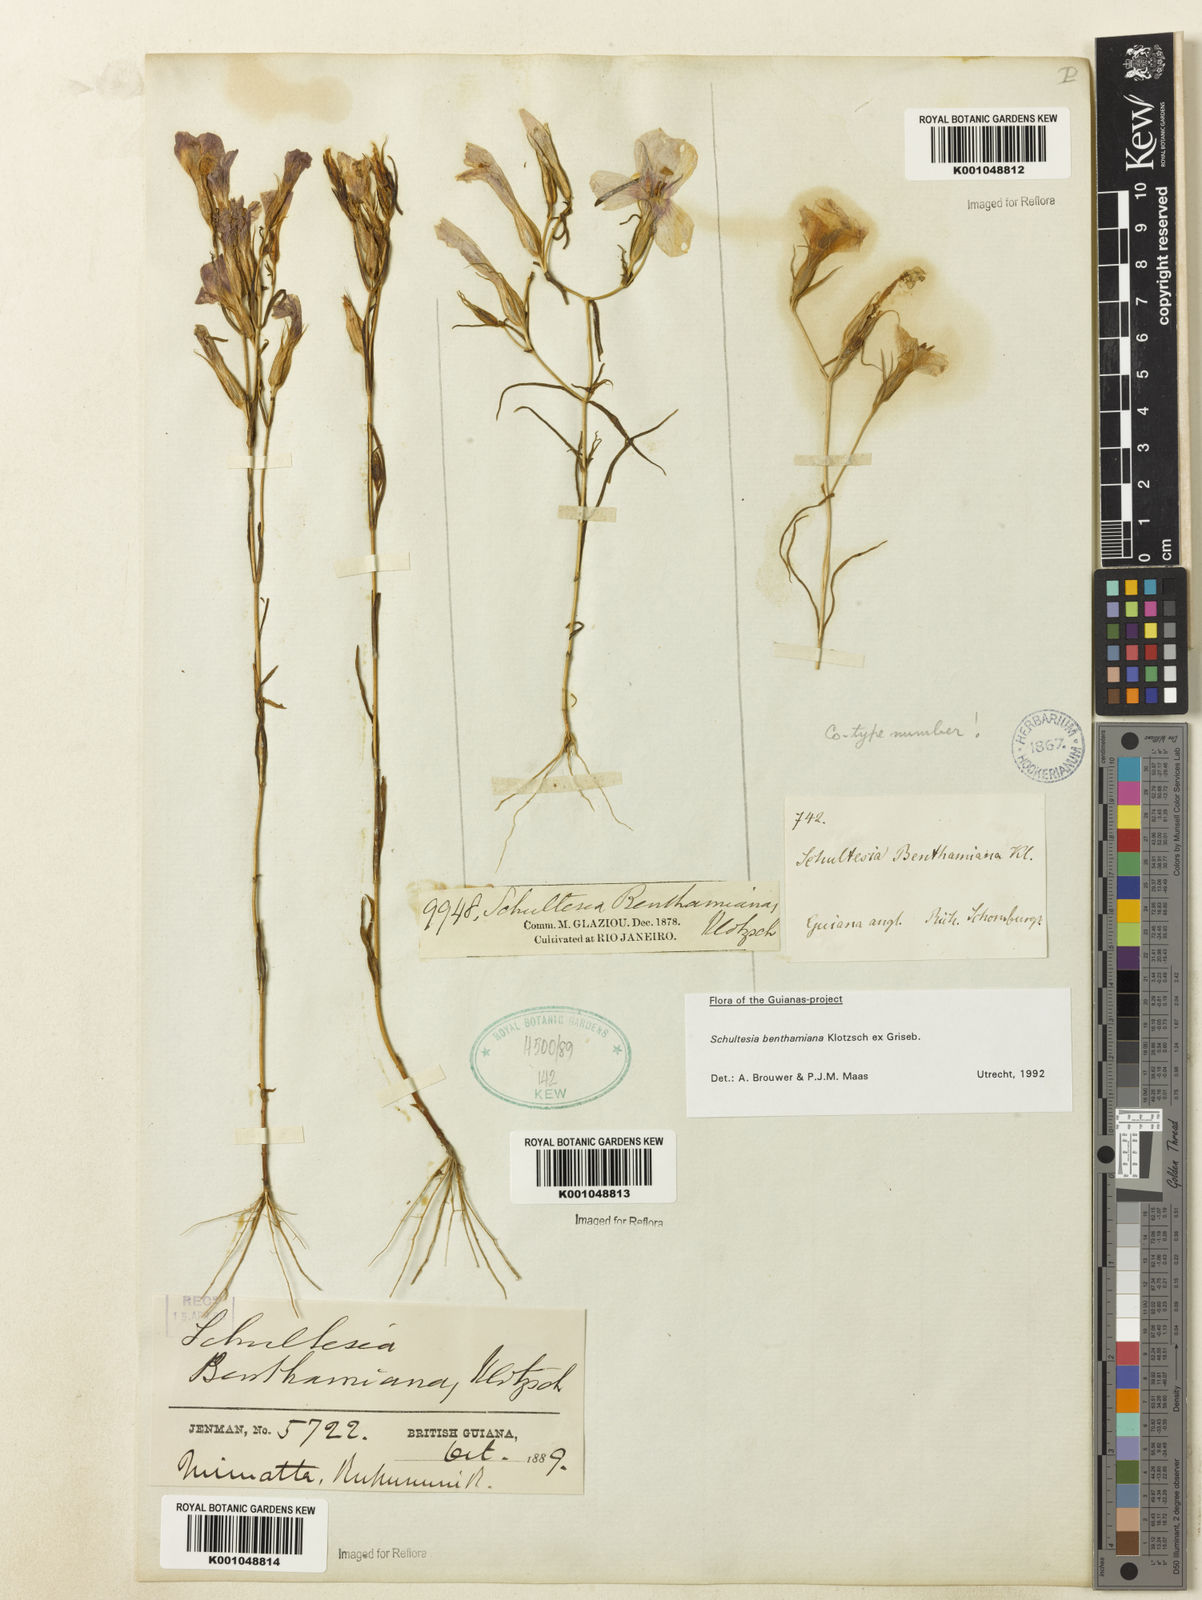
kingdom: Plantae
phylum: Tracheophyta
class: Magnoliopsida
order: Gentianales
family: Gentianaceae
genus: Schultesia
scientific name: Schultesia benthamiana
